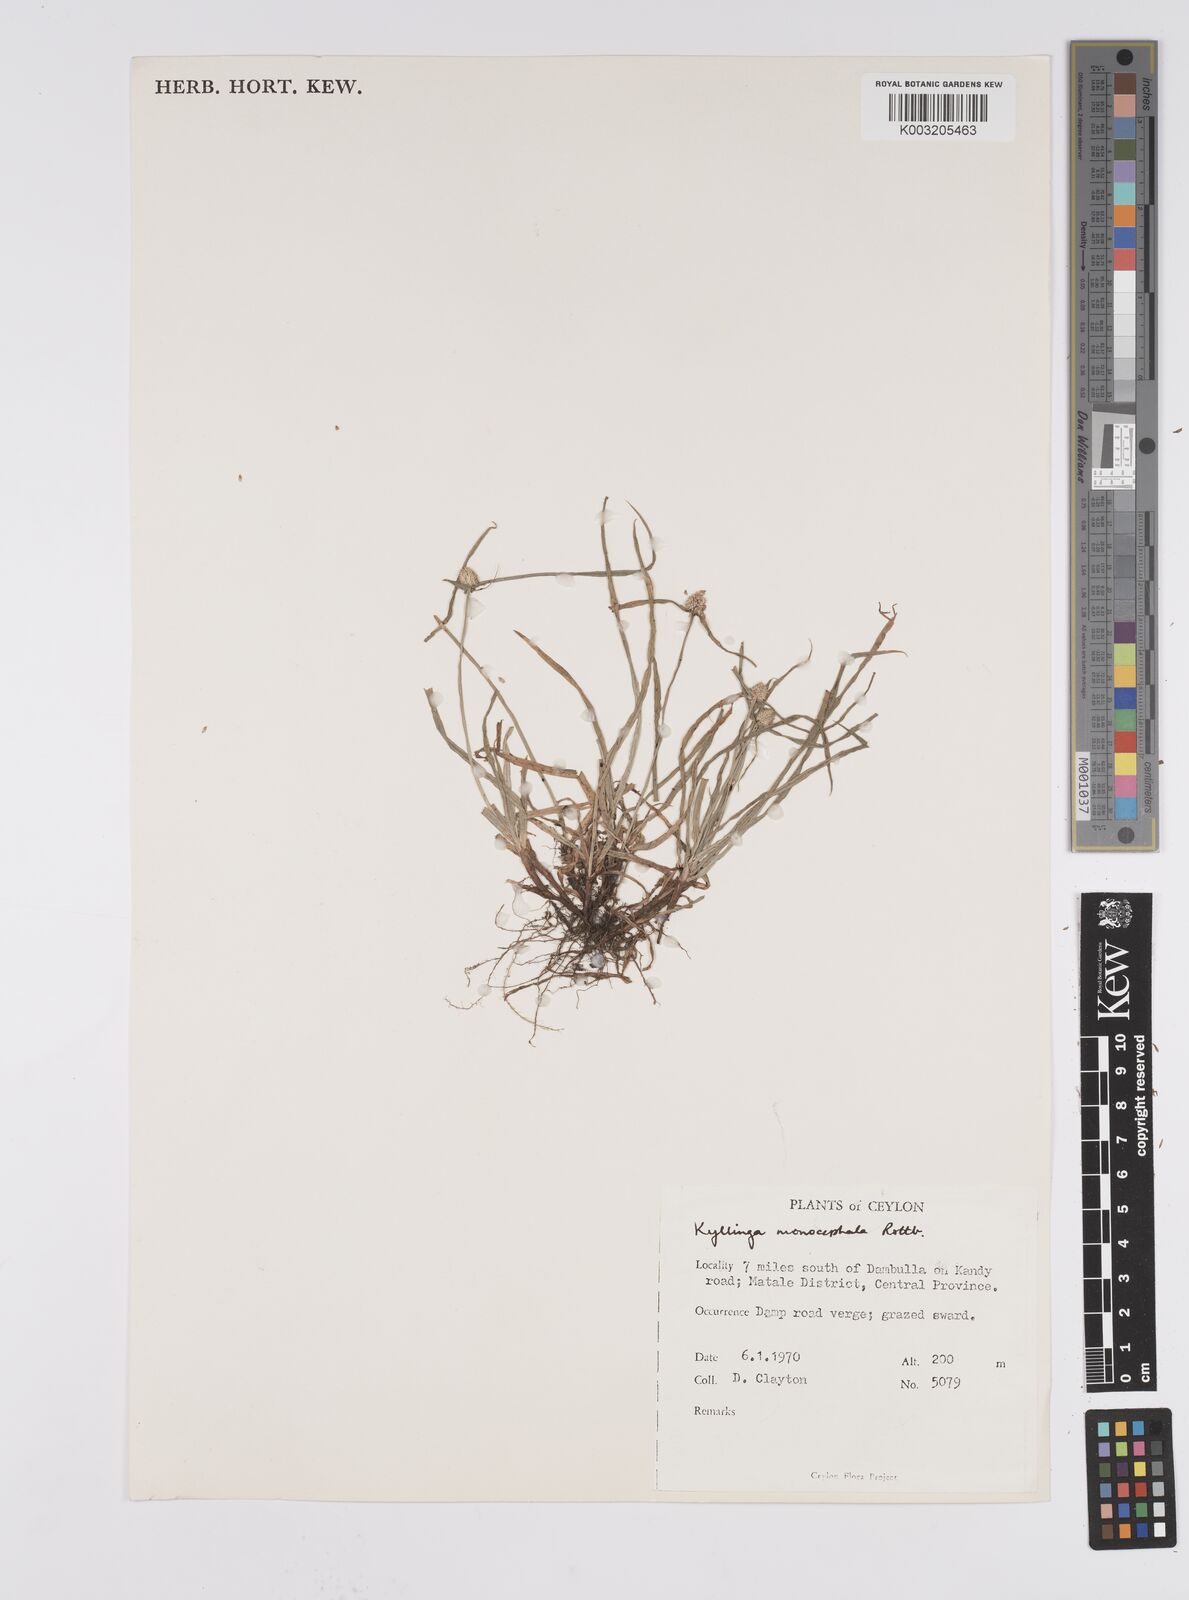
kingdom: Plantae
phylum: Tracheophyta
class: Liliopsida
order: Poales
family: Cyperaceae
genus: Cyperus
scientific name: Cyperus nemoralis
